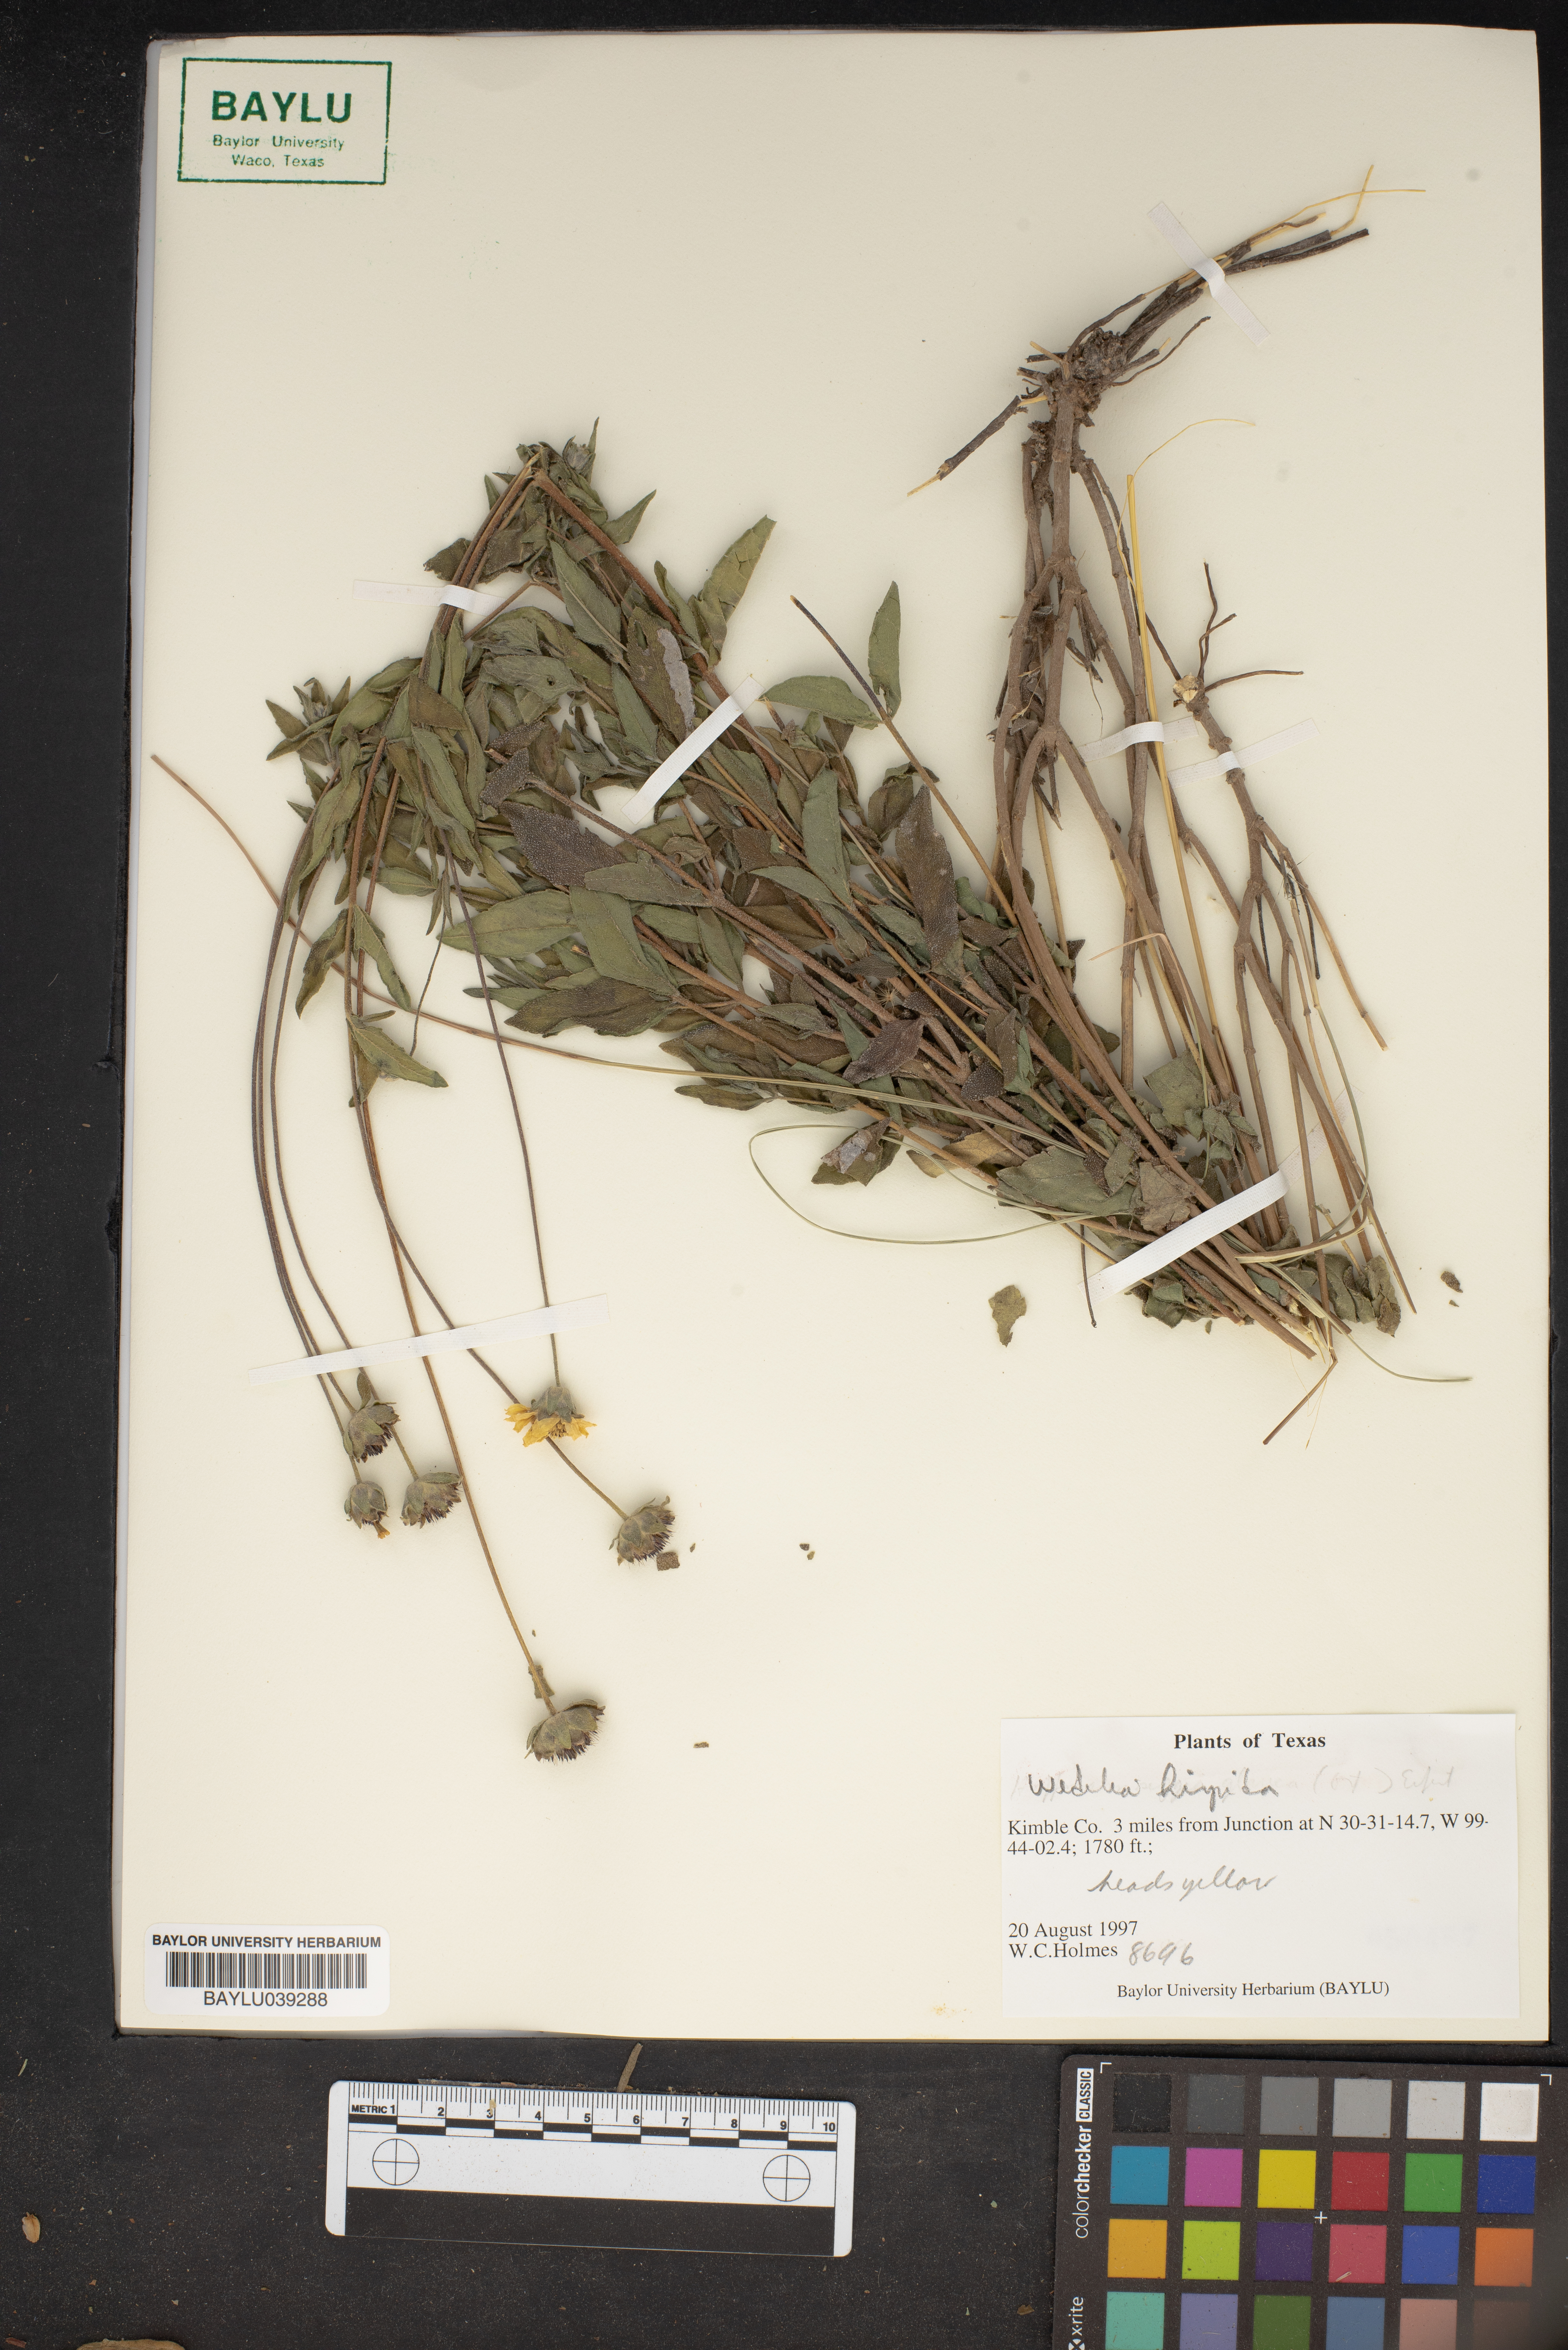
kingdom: Plantae
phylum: Tracheophyta
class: Magnoliopsida
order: Asterales
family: Asteraceae
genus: Wedelia
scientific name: Wedelia acapulcensis
